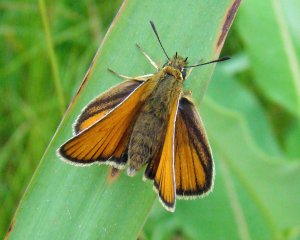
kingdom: Animalia
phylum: Arthropoda
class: Insecta
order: Lepidoptera
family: Hesperiidae
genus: Thymelicus
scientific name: Thymelicus lineola
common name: European Skipper
